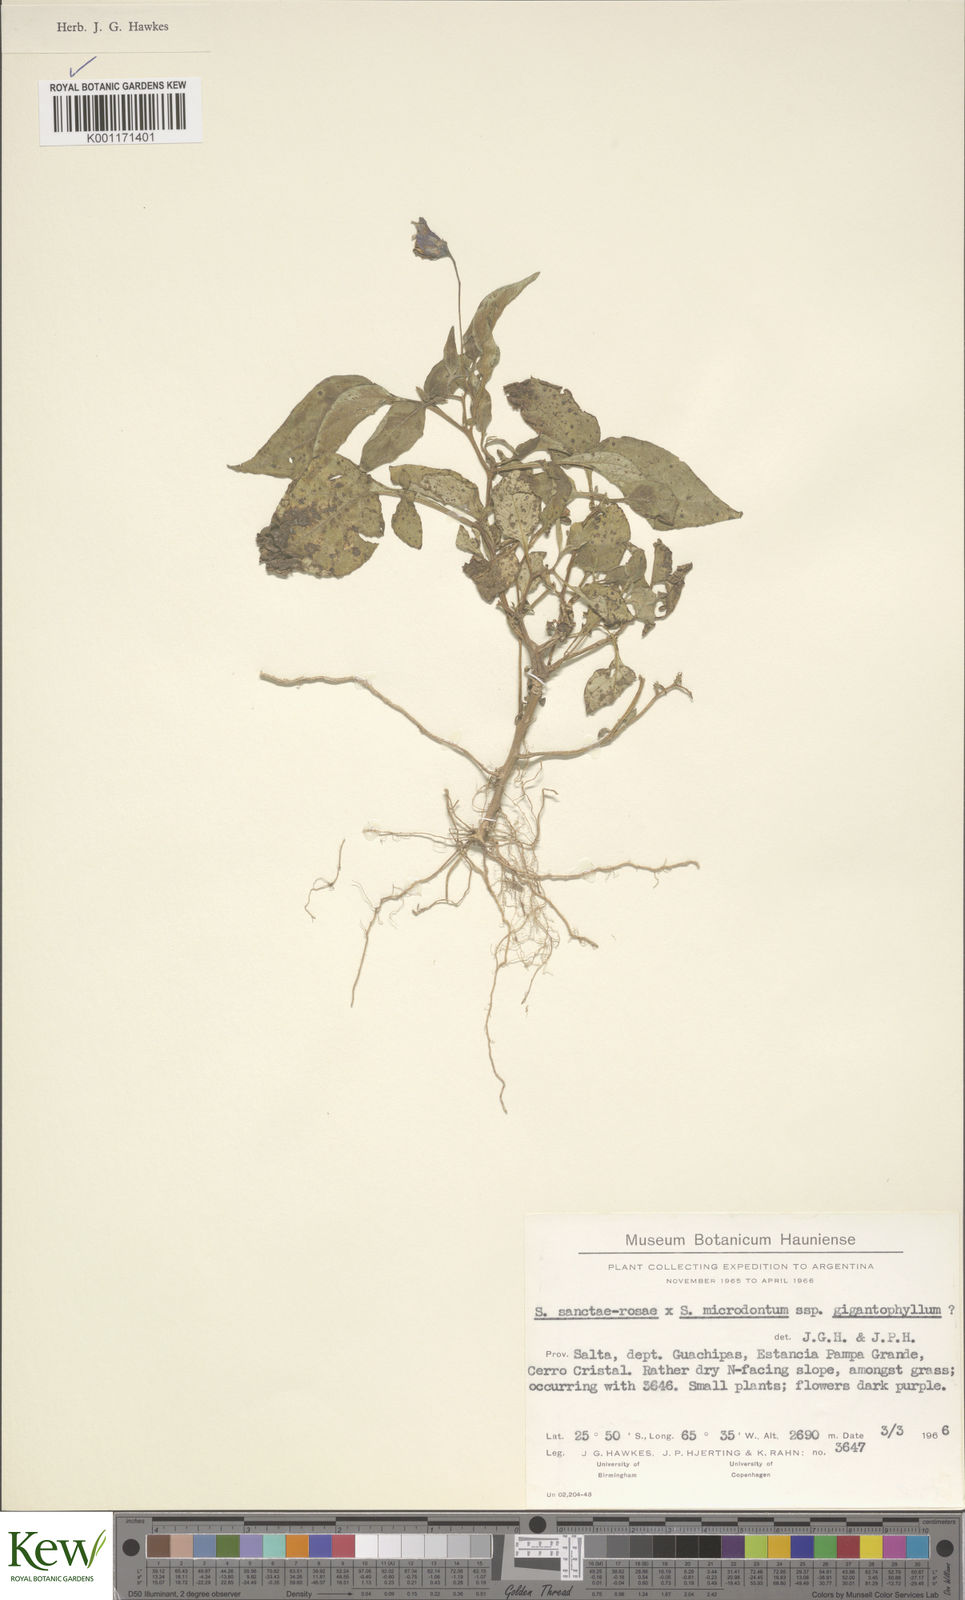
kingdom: Plantae
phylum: Tracheophyta
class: Magnoliopsida
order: Solanales
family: Solanaceae
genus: Solanum
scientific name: Solanum microdontum
